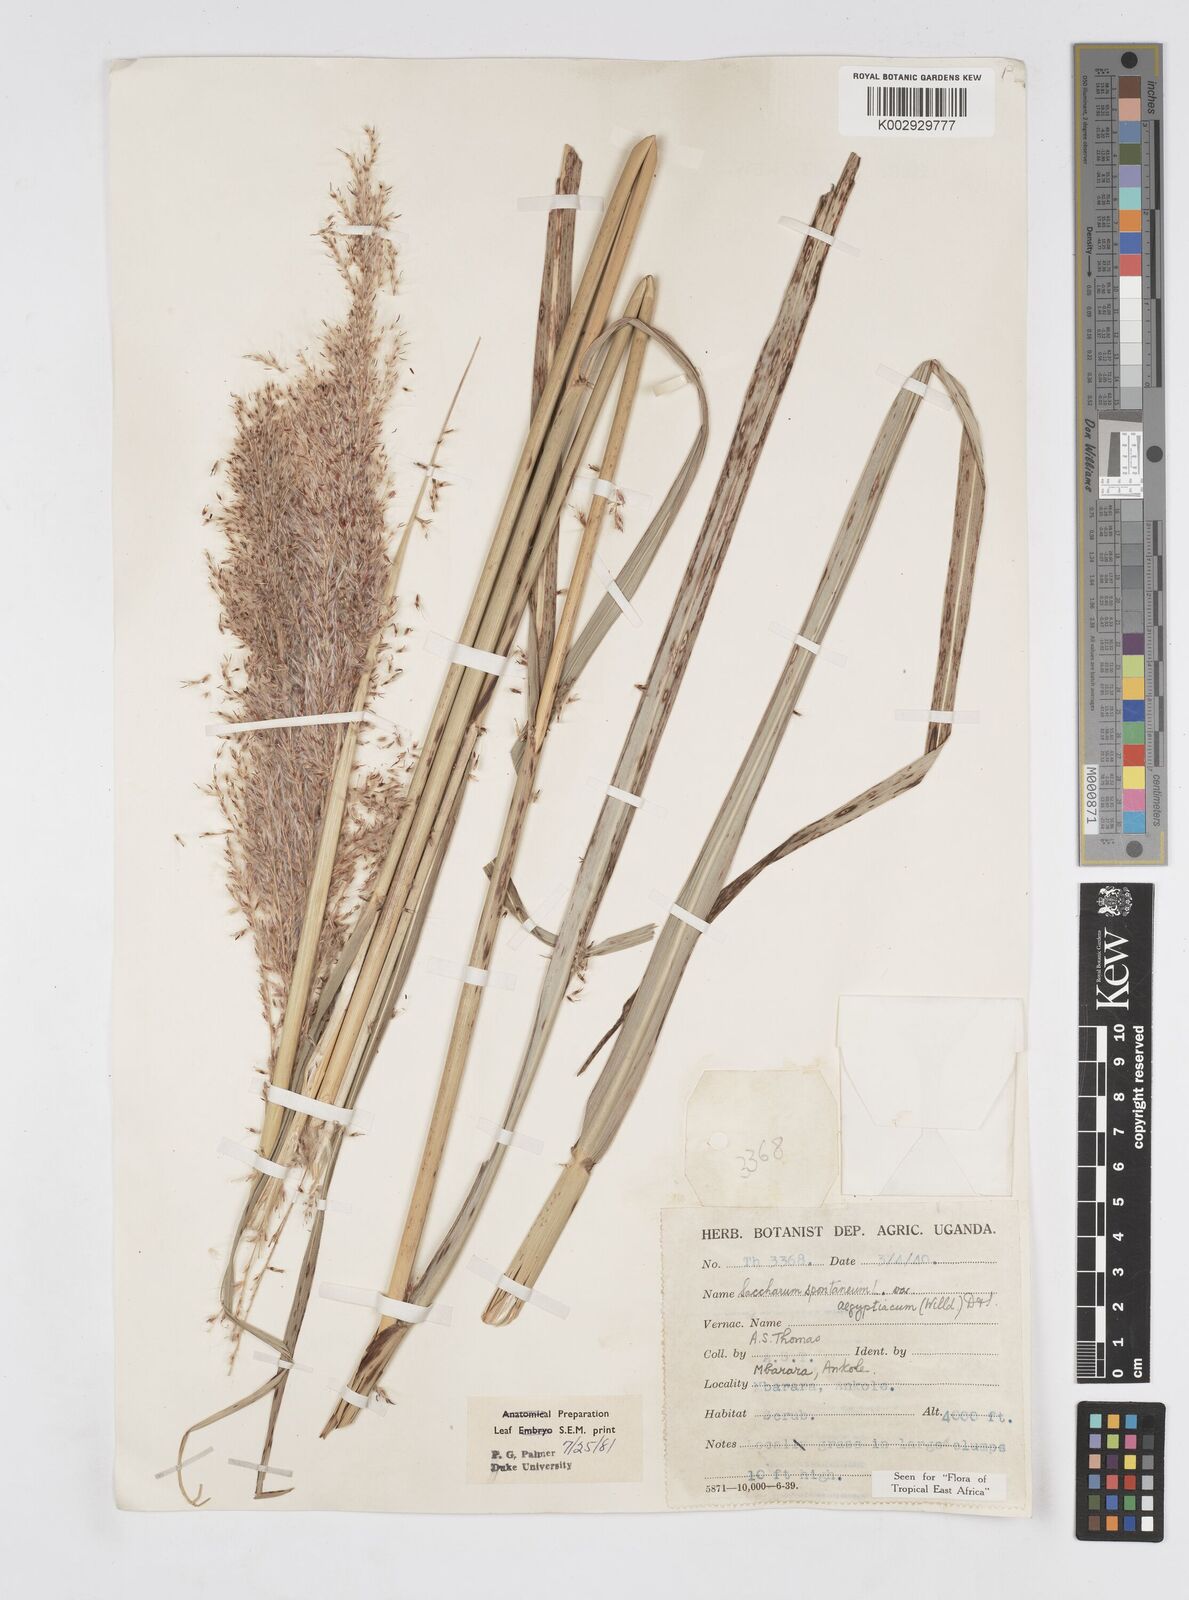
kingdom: Plantae
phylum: Tracheophyta
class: Liliopsida
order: Poales
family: Poaceae
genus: Saccharum
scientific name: Saccharum spontaneum
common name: Wild sugarcane
